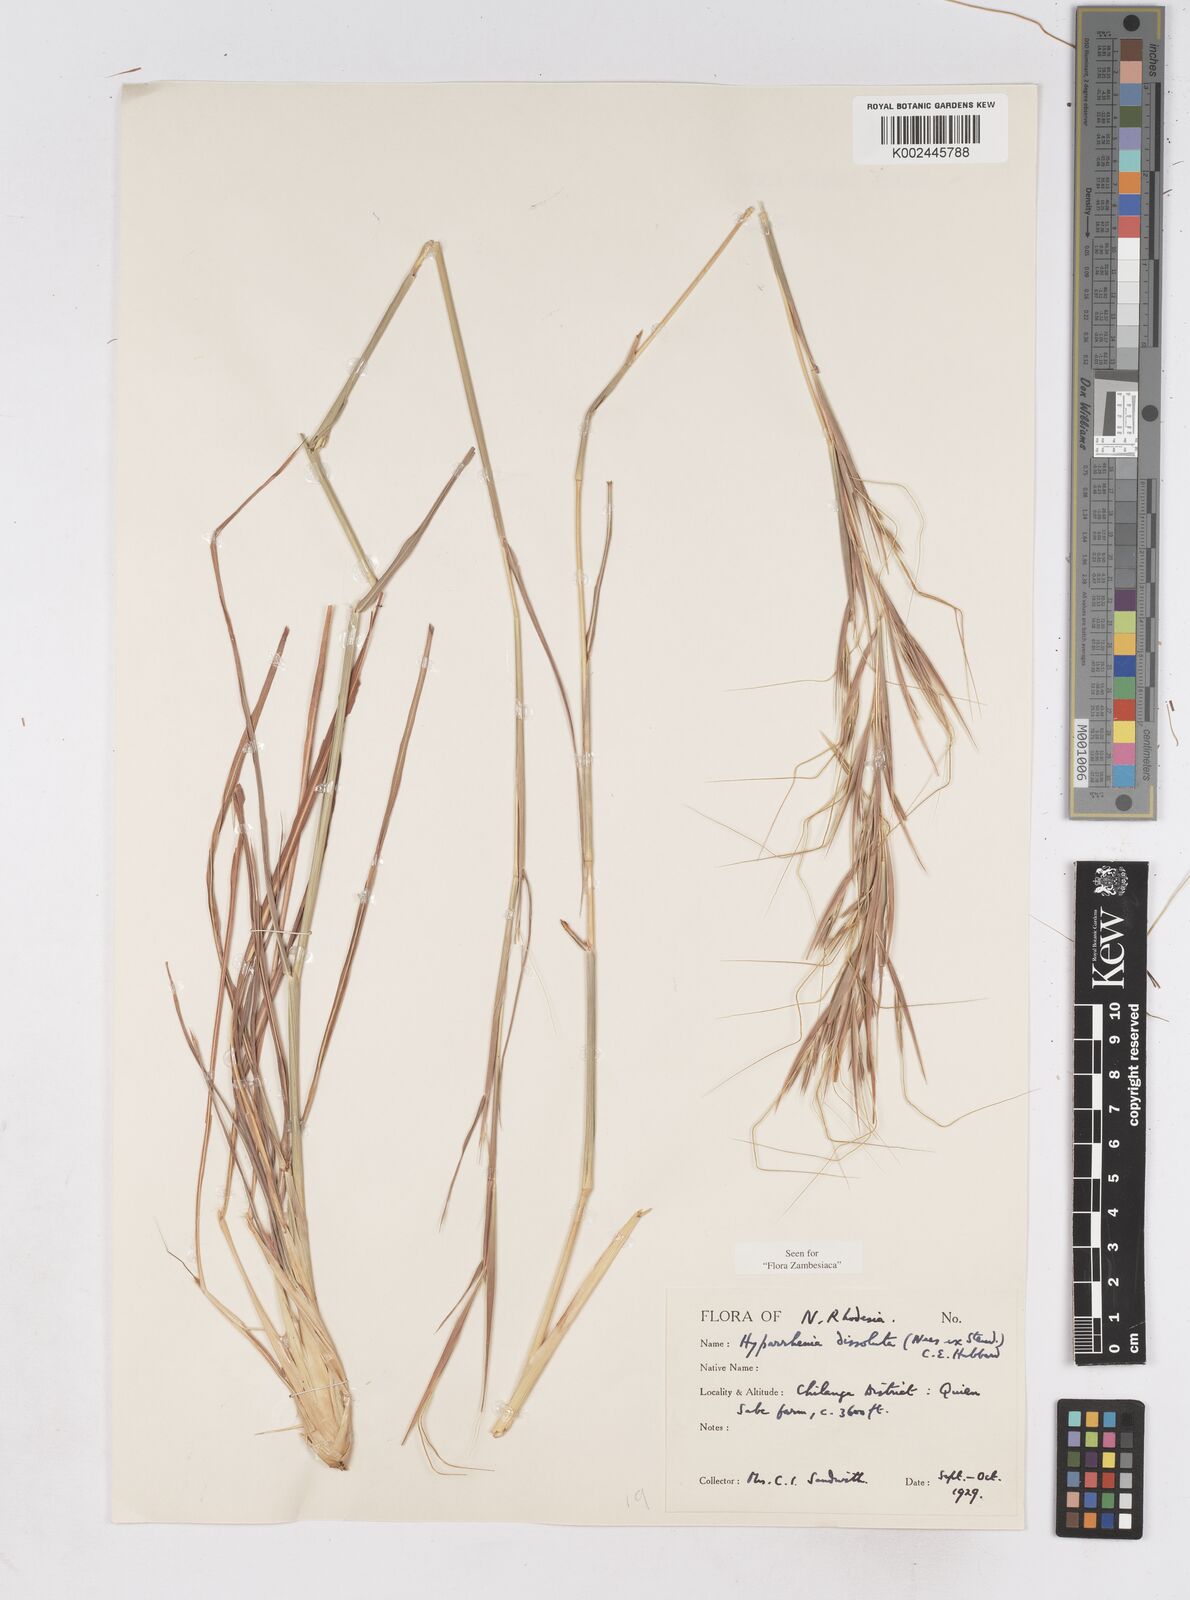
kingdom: Plantae
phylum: Tracheophyta
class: Liliopsida
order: Poales
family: Poaceae
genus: Hyperthelia
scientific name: Hyperthelia dissoluta
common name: Yellow thatching grass
